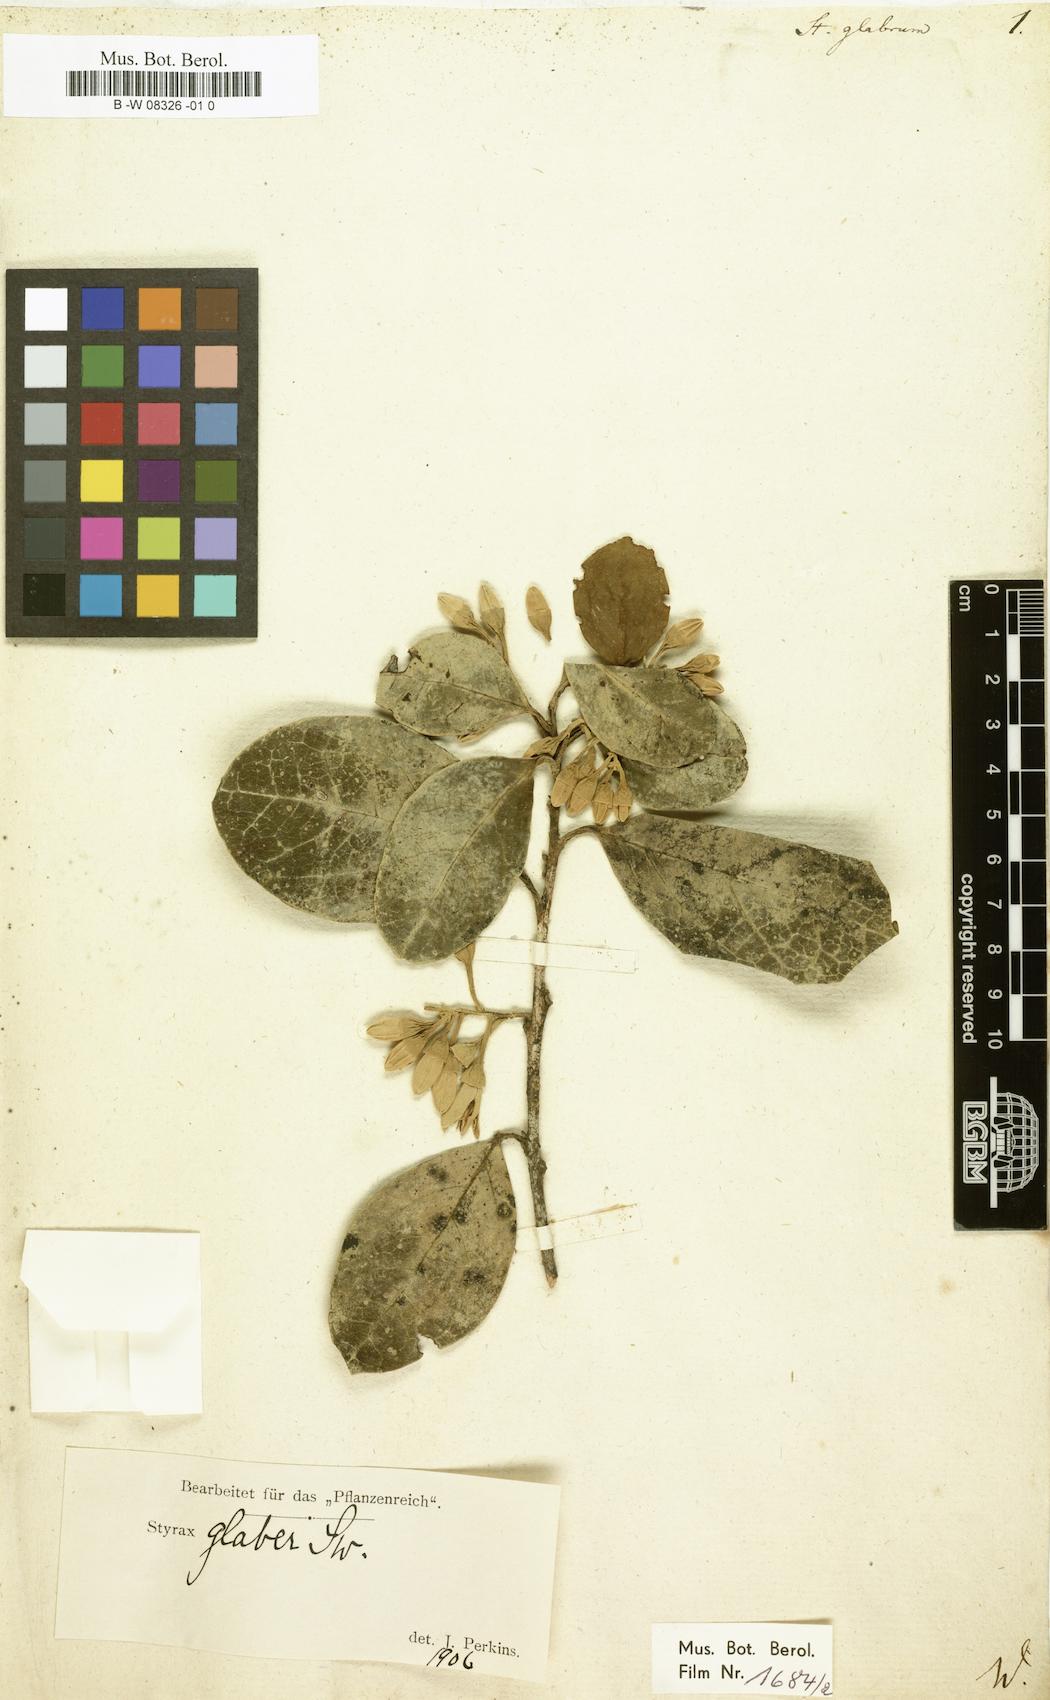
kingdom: Plantae
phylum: Tracheophyta
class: Magnoliopsida
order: Ericales
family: Styracaceae
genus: Styrax
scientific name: Styrax glaber
